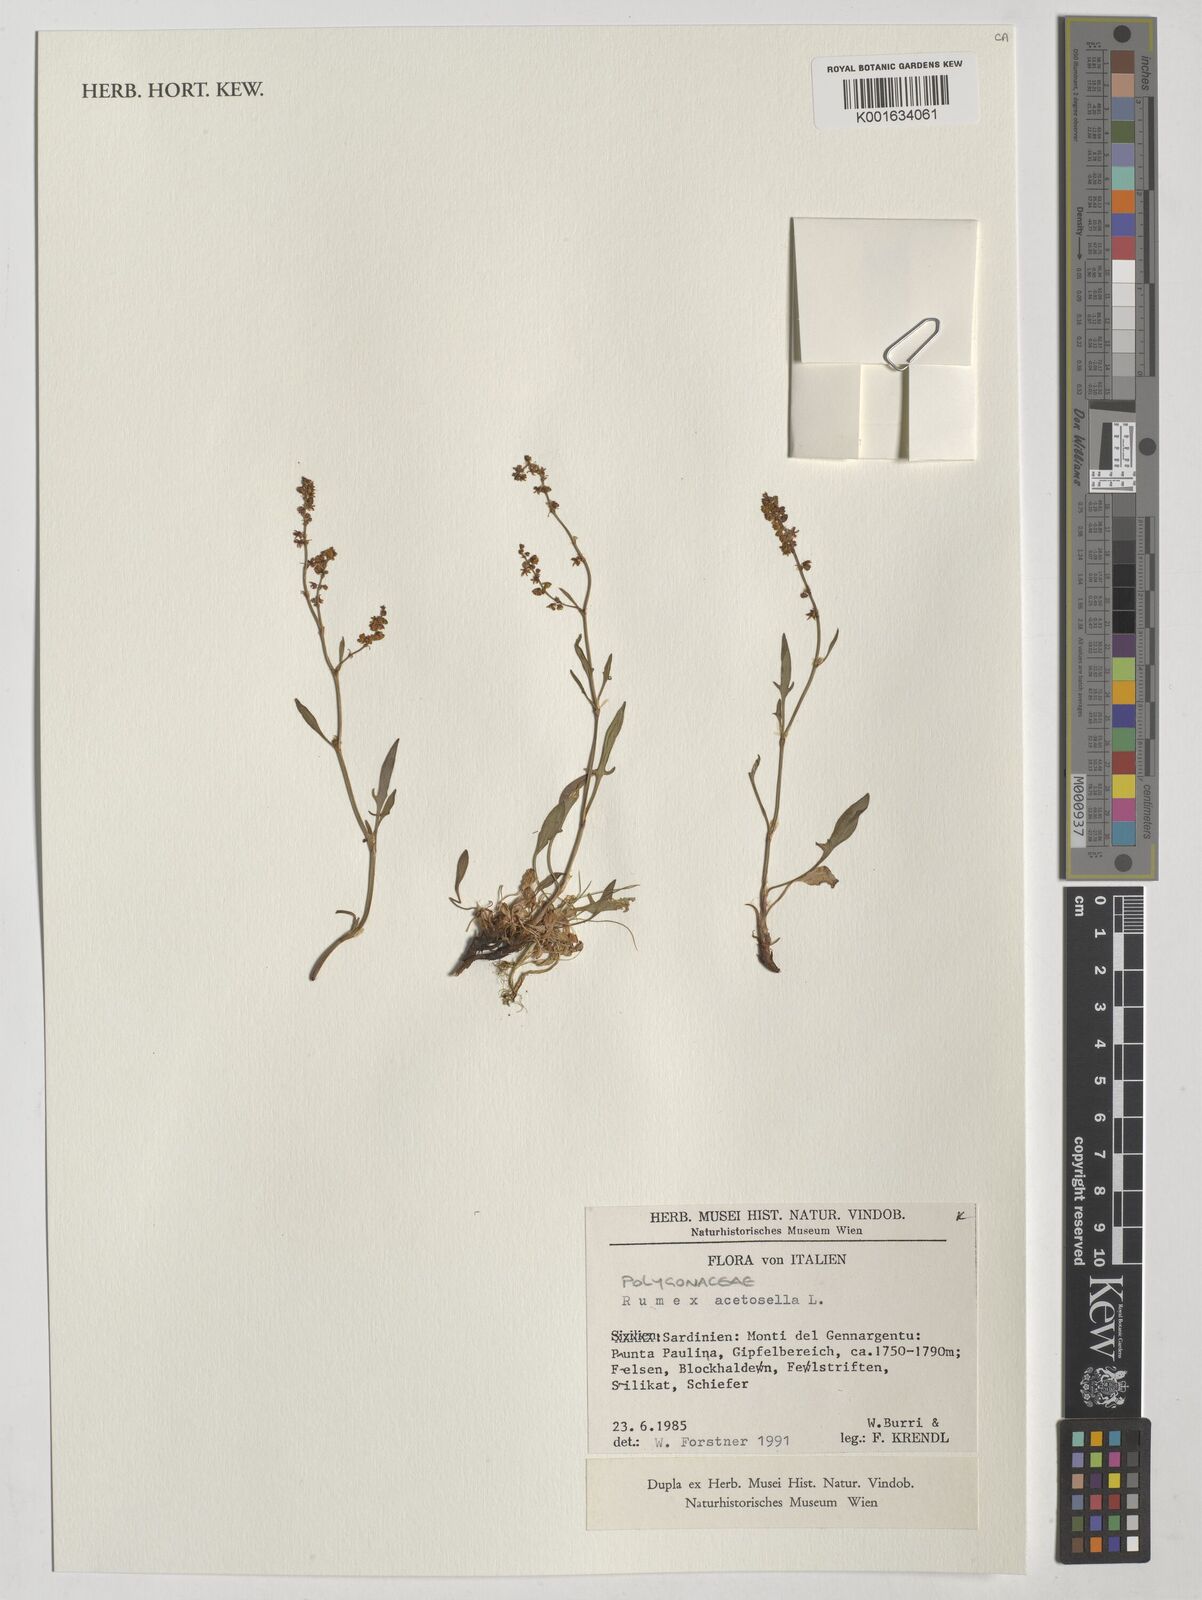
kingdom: Plantae
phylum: Tracheophyta
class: Magnoliopsida
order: Caryophyllales
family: Polygonaceae
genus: Rumex
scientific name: Rumex acetosella
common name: Common sheep sorrel
